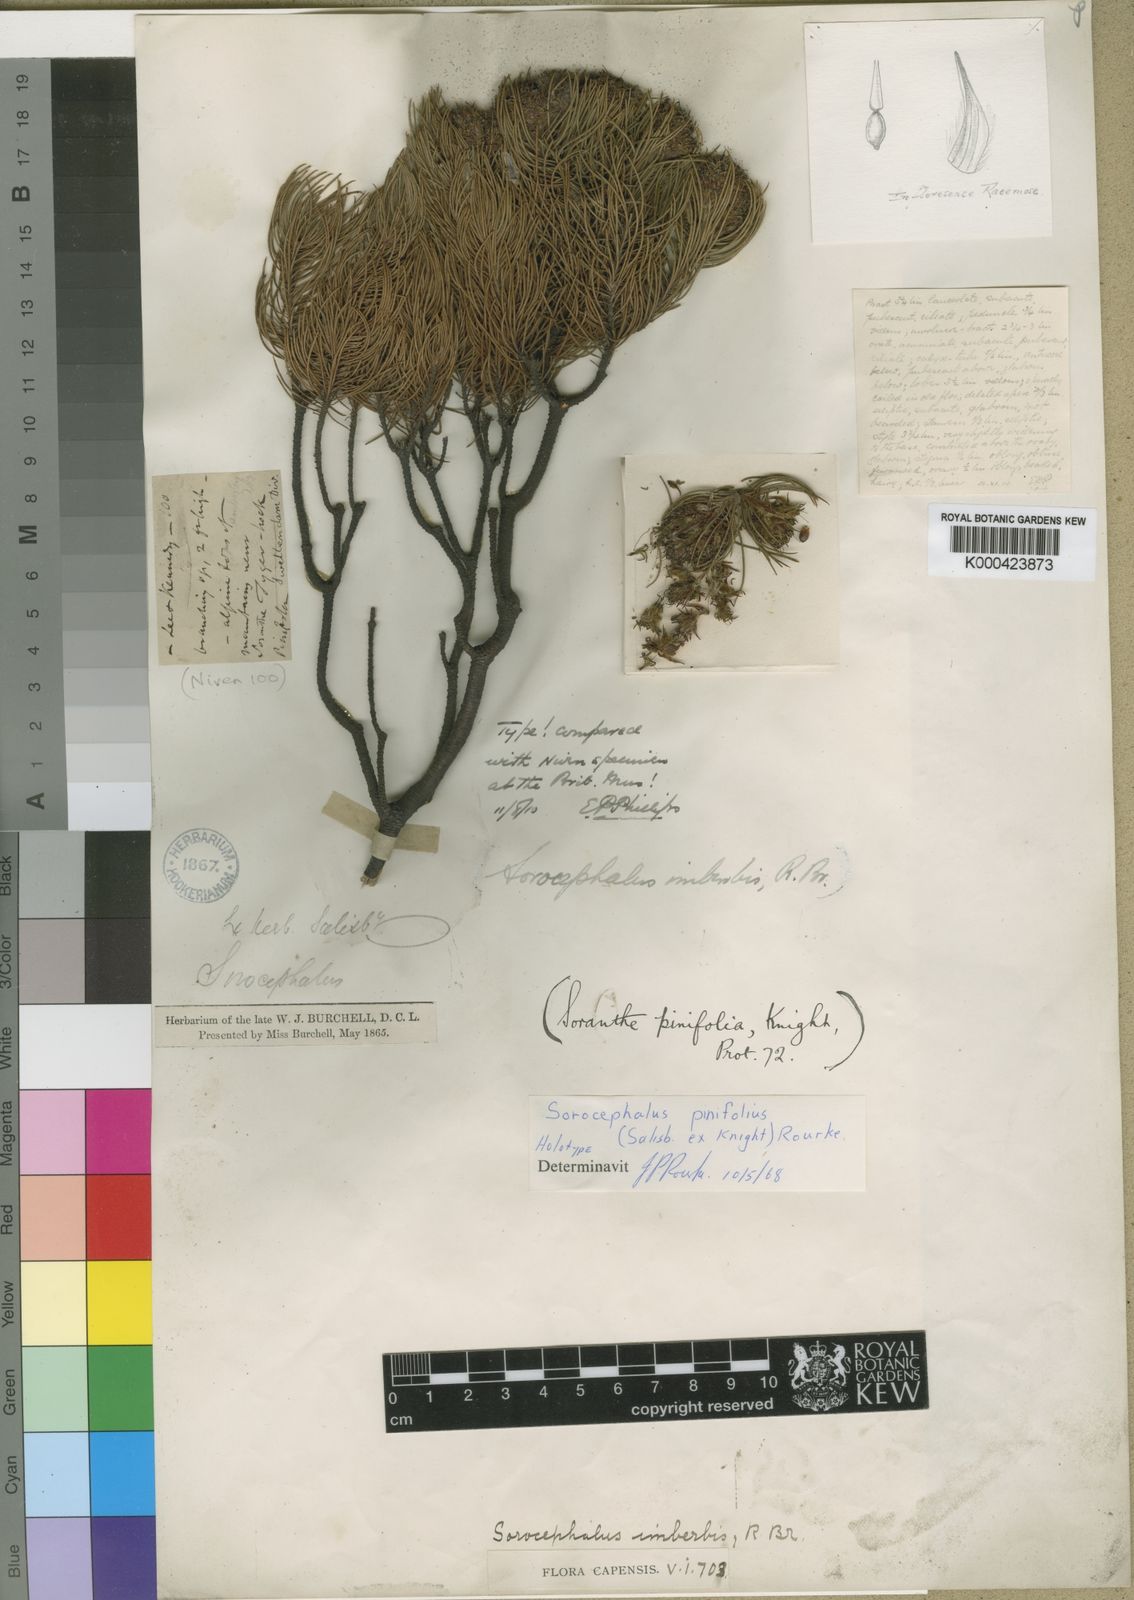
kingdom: Plantae
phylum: Tracheophyta
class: Magnoliopsida
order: Proteales
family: Proteaceae
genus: Sorocephalus
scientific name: Sorocephalus pinifolius
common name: Long-leaf clusterhead
